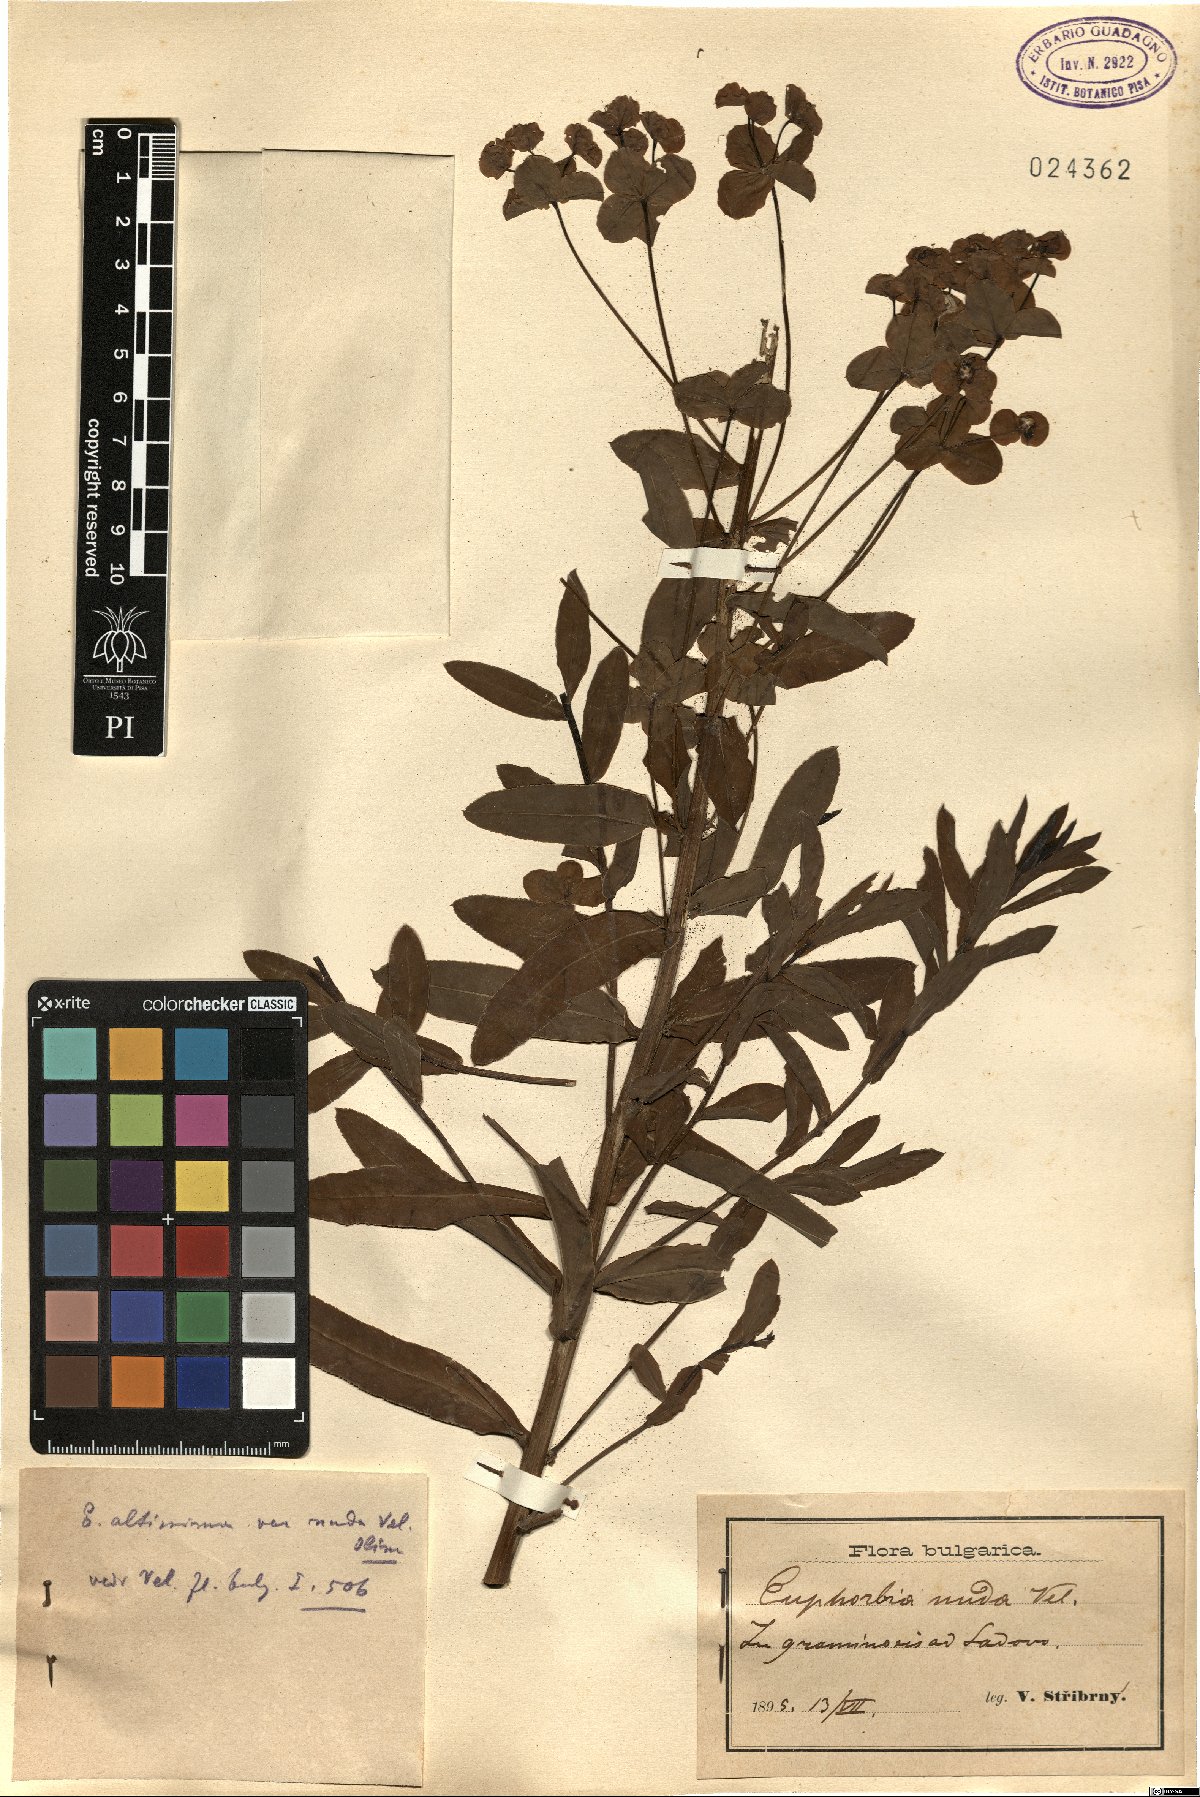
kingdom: Plantae
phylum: Tracheophyta
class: Magnoliopsida
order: Malpighiales
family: Euphorbiaceae
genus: Euphorbia
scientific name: Euphorbia palustris
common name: Marsh spurge
